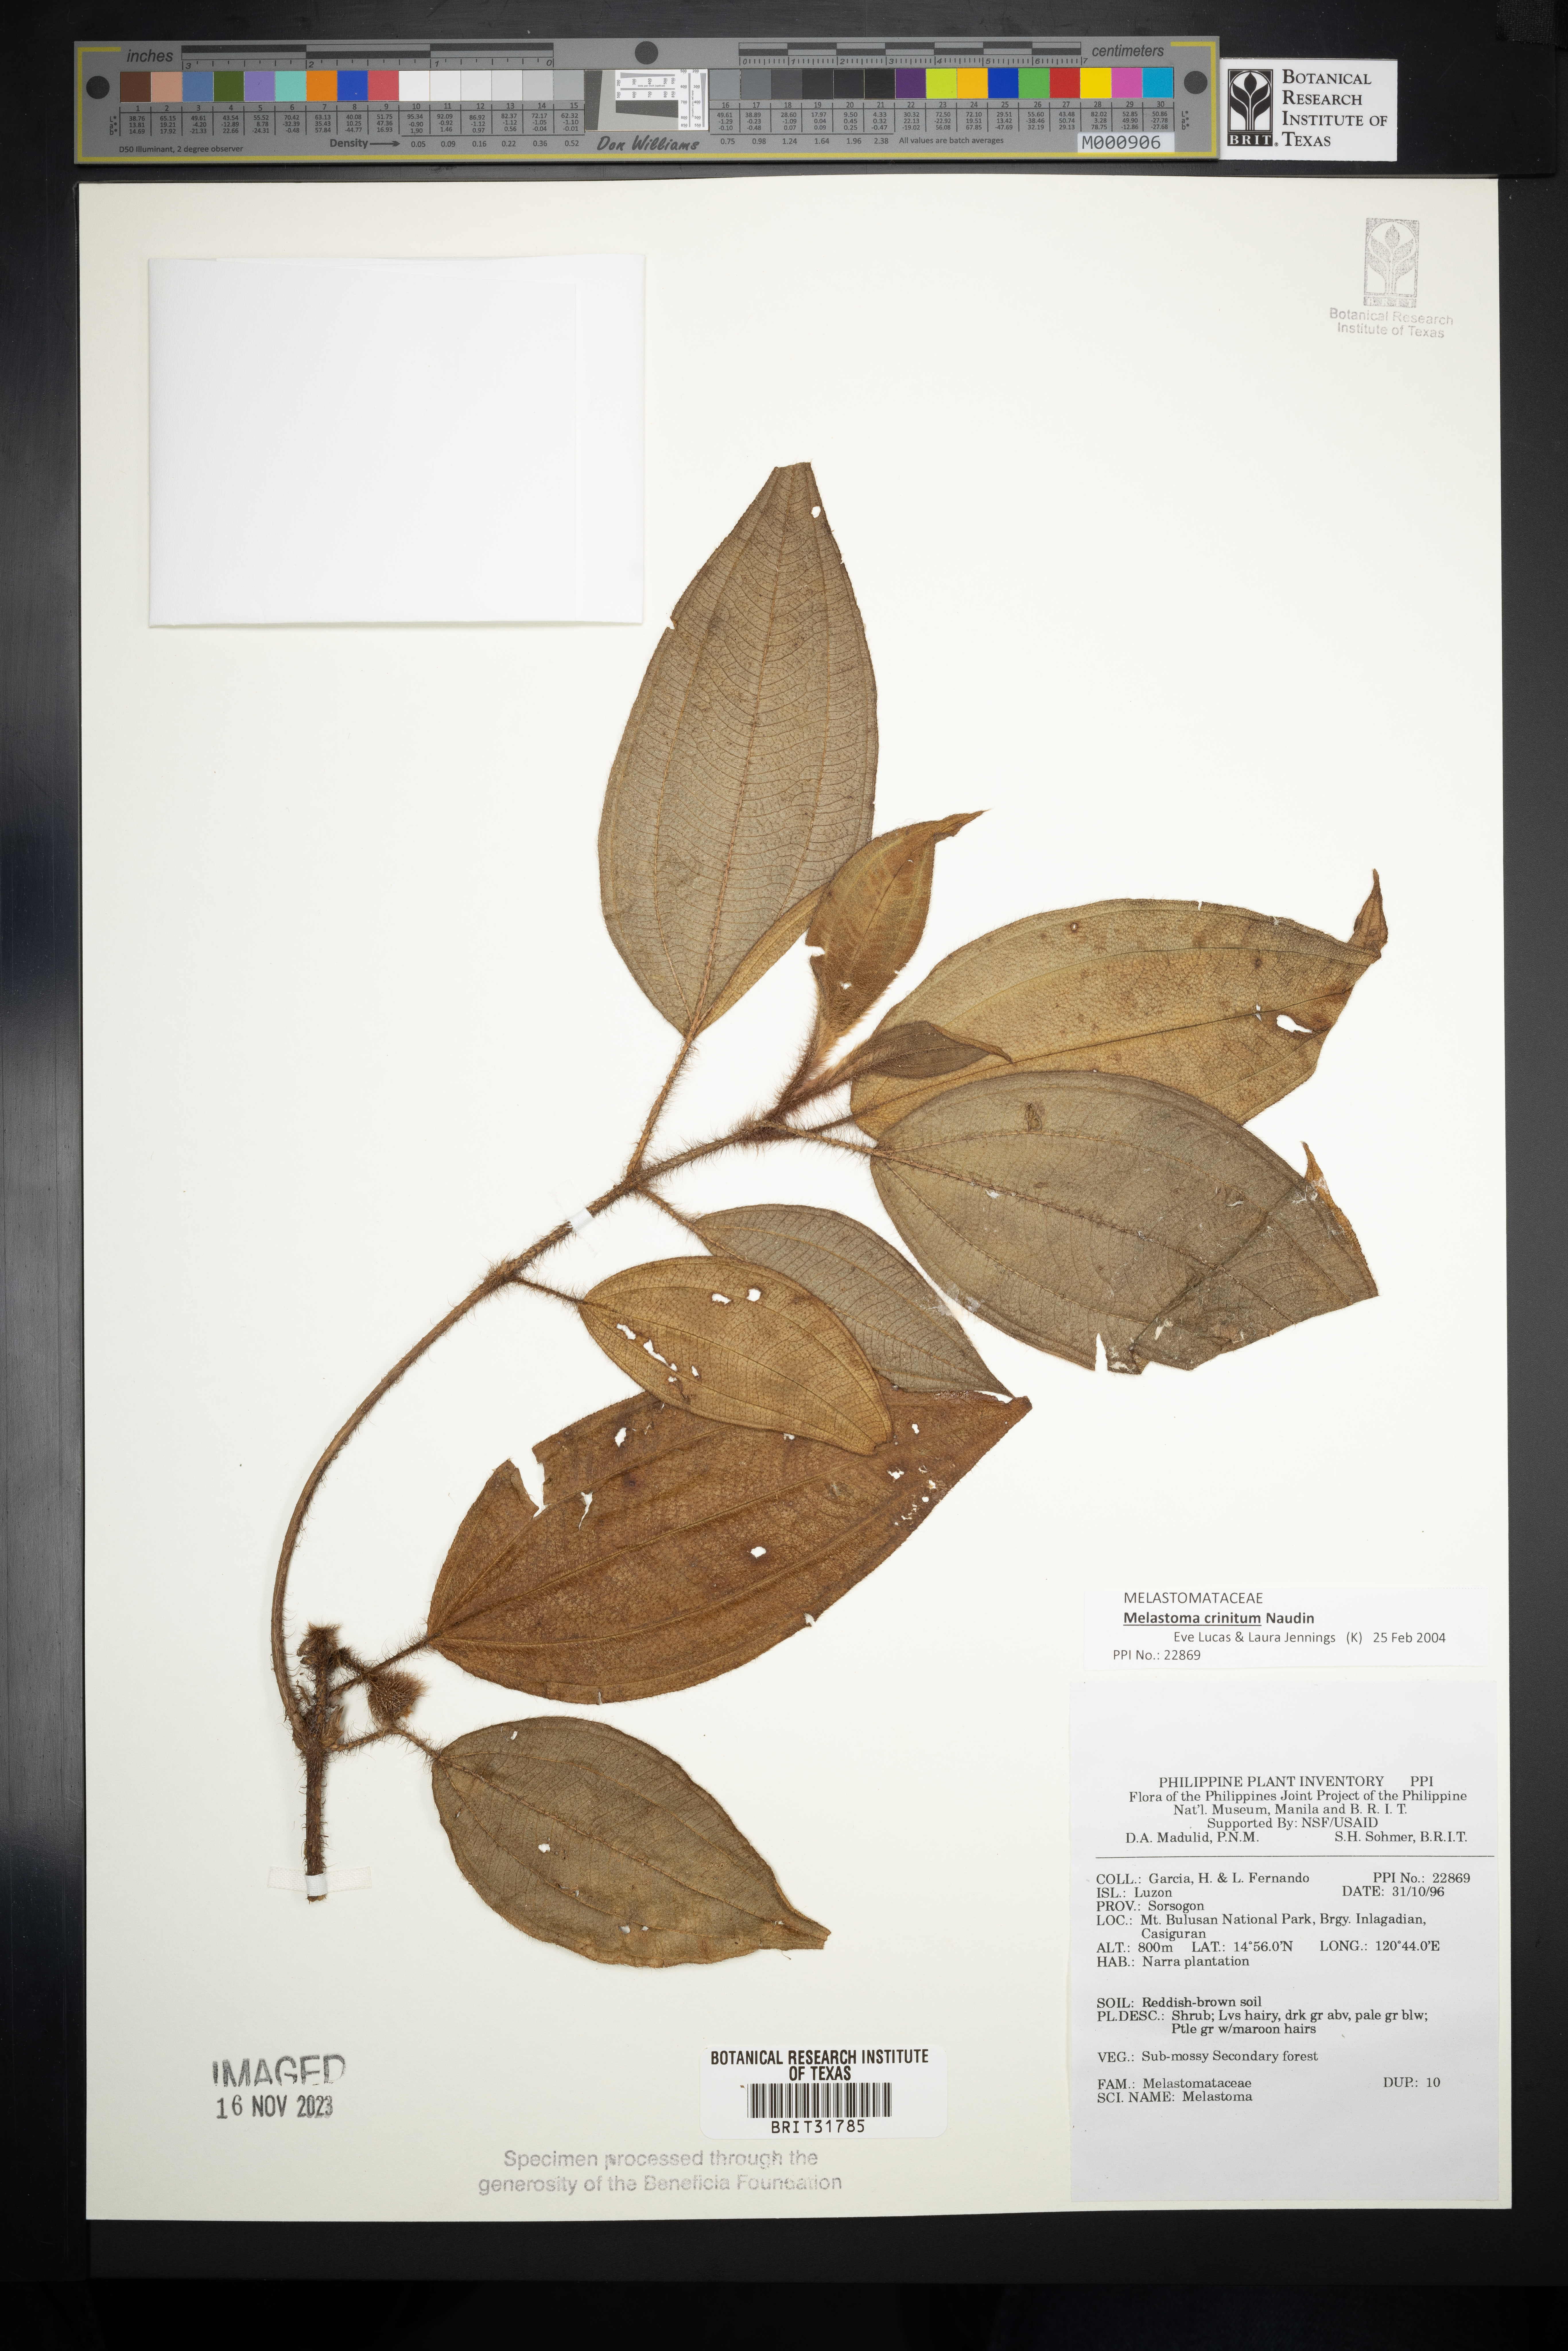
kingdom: Plantae
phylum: Tracheophyta
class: Magnoliopsida
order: Myrtales
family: Melastomataceae
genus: Melastoma
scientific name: Melastoma
